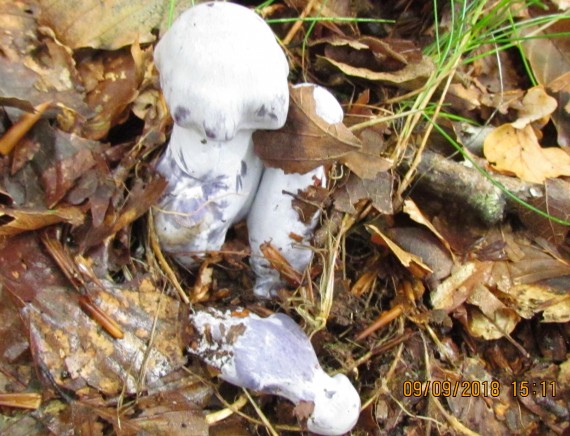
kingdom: Fungi
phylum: Basidiomycota
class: Agaricomycetes
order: Agaricales
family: Cortinariaceae
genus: Cortinarius
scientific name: Cortinarius alboviolaceus
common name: lysviolet slørhat
